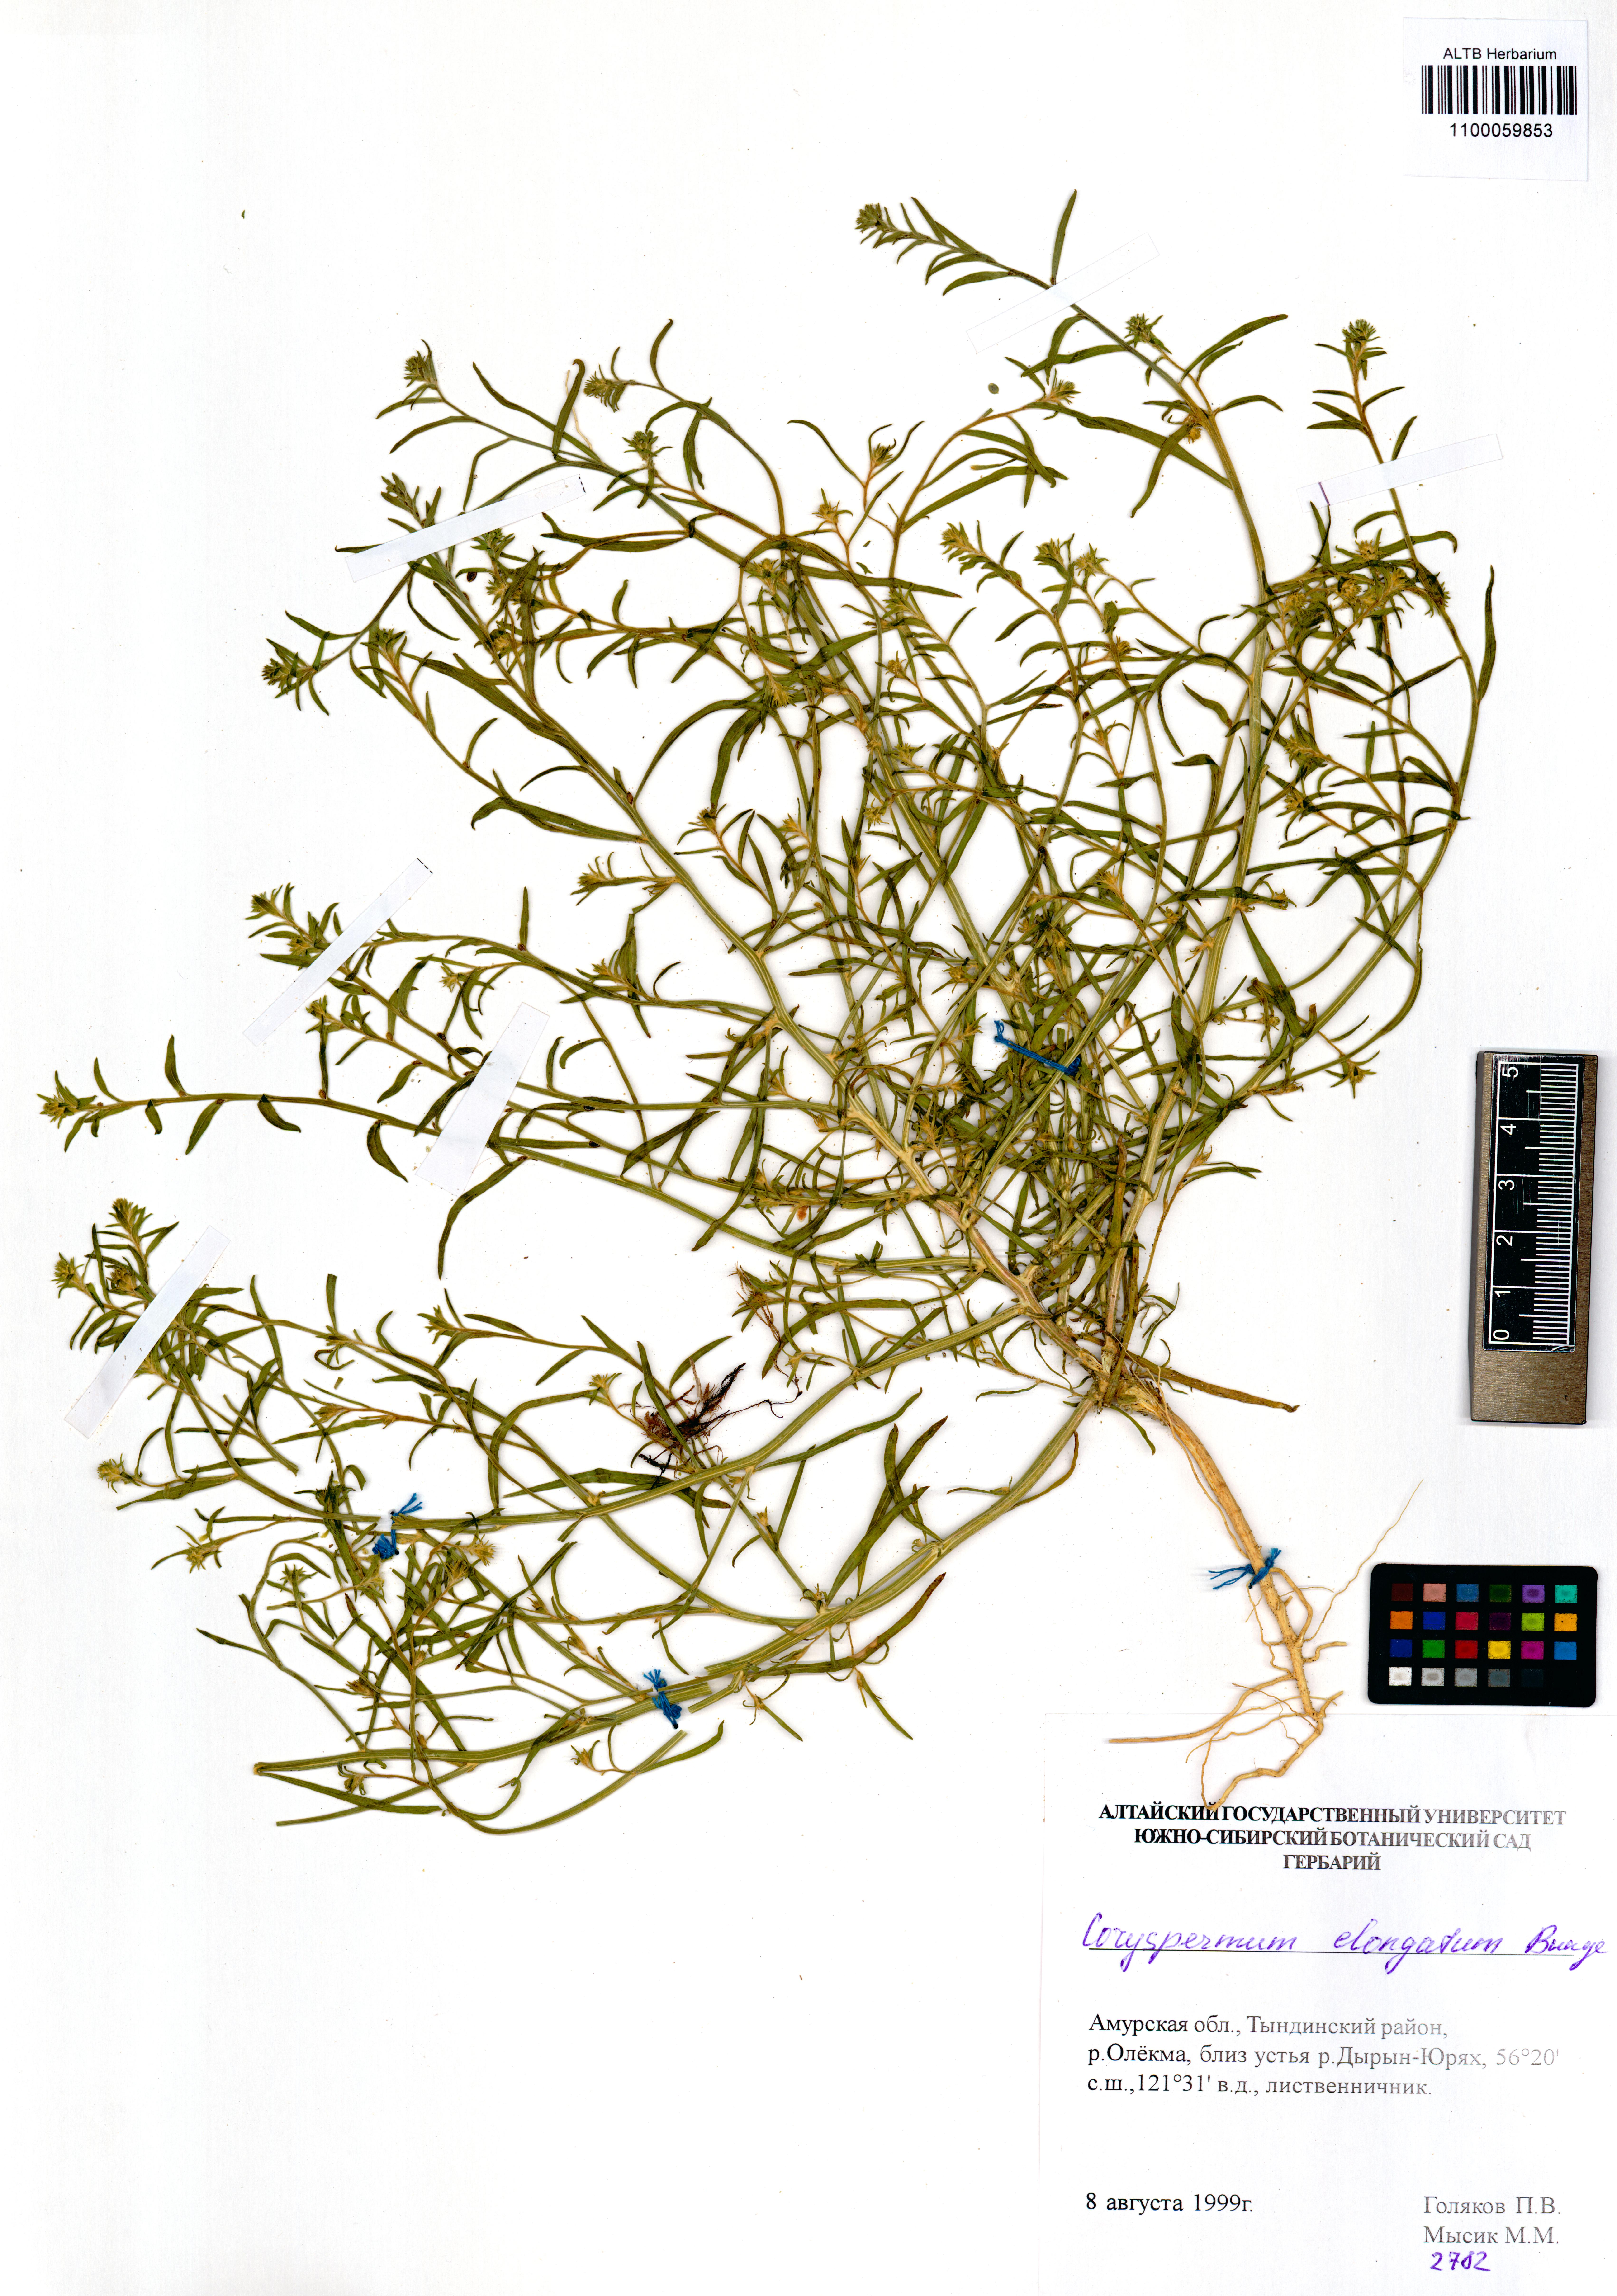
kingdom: Plantae
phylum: Tracheophyta
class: Magnoliopsida
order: Caryophyllales
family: Amaranthaceae
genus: Corispermum
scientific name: Corispermum elongatum
